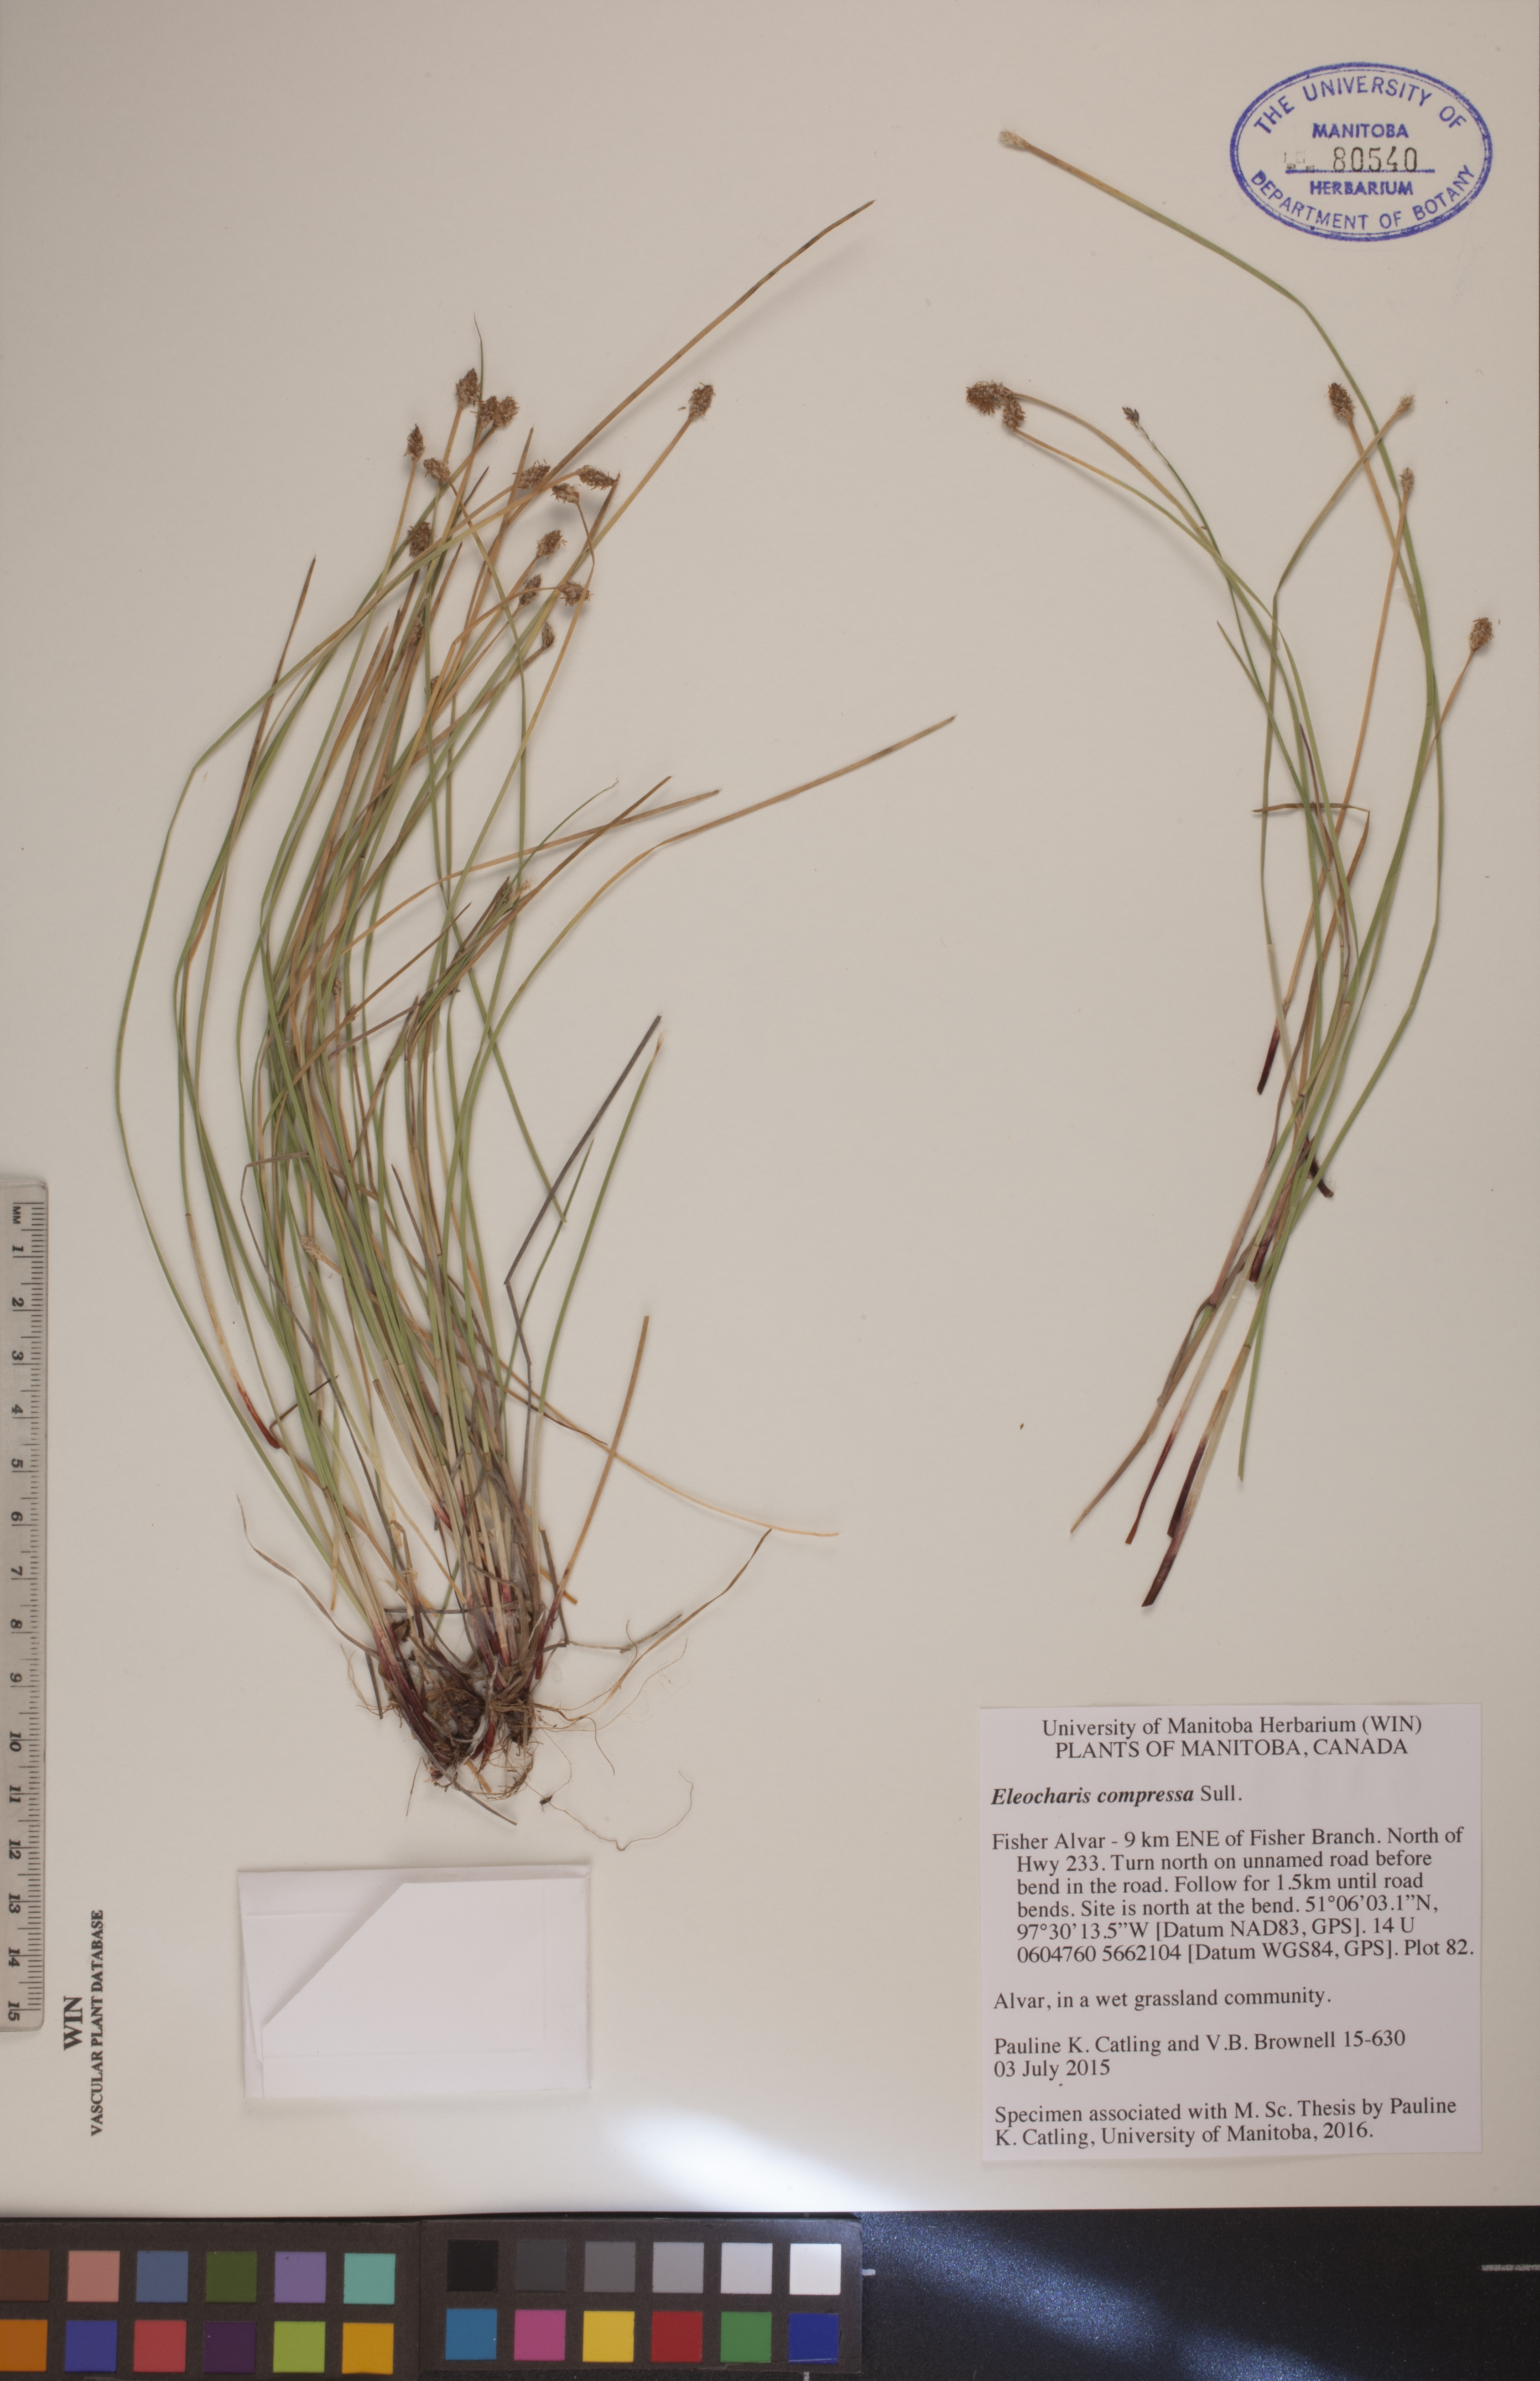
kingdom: Plantae
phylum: Tracheophyta
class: Liliopsida
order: Poales
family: Cyperaceae
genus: Eleocharis
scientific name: Eleocharis compressa
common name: Flat-stem spike-rush
